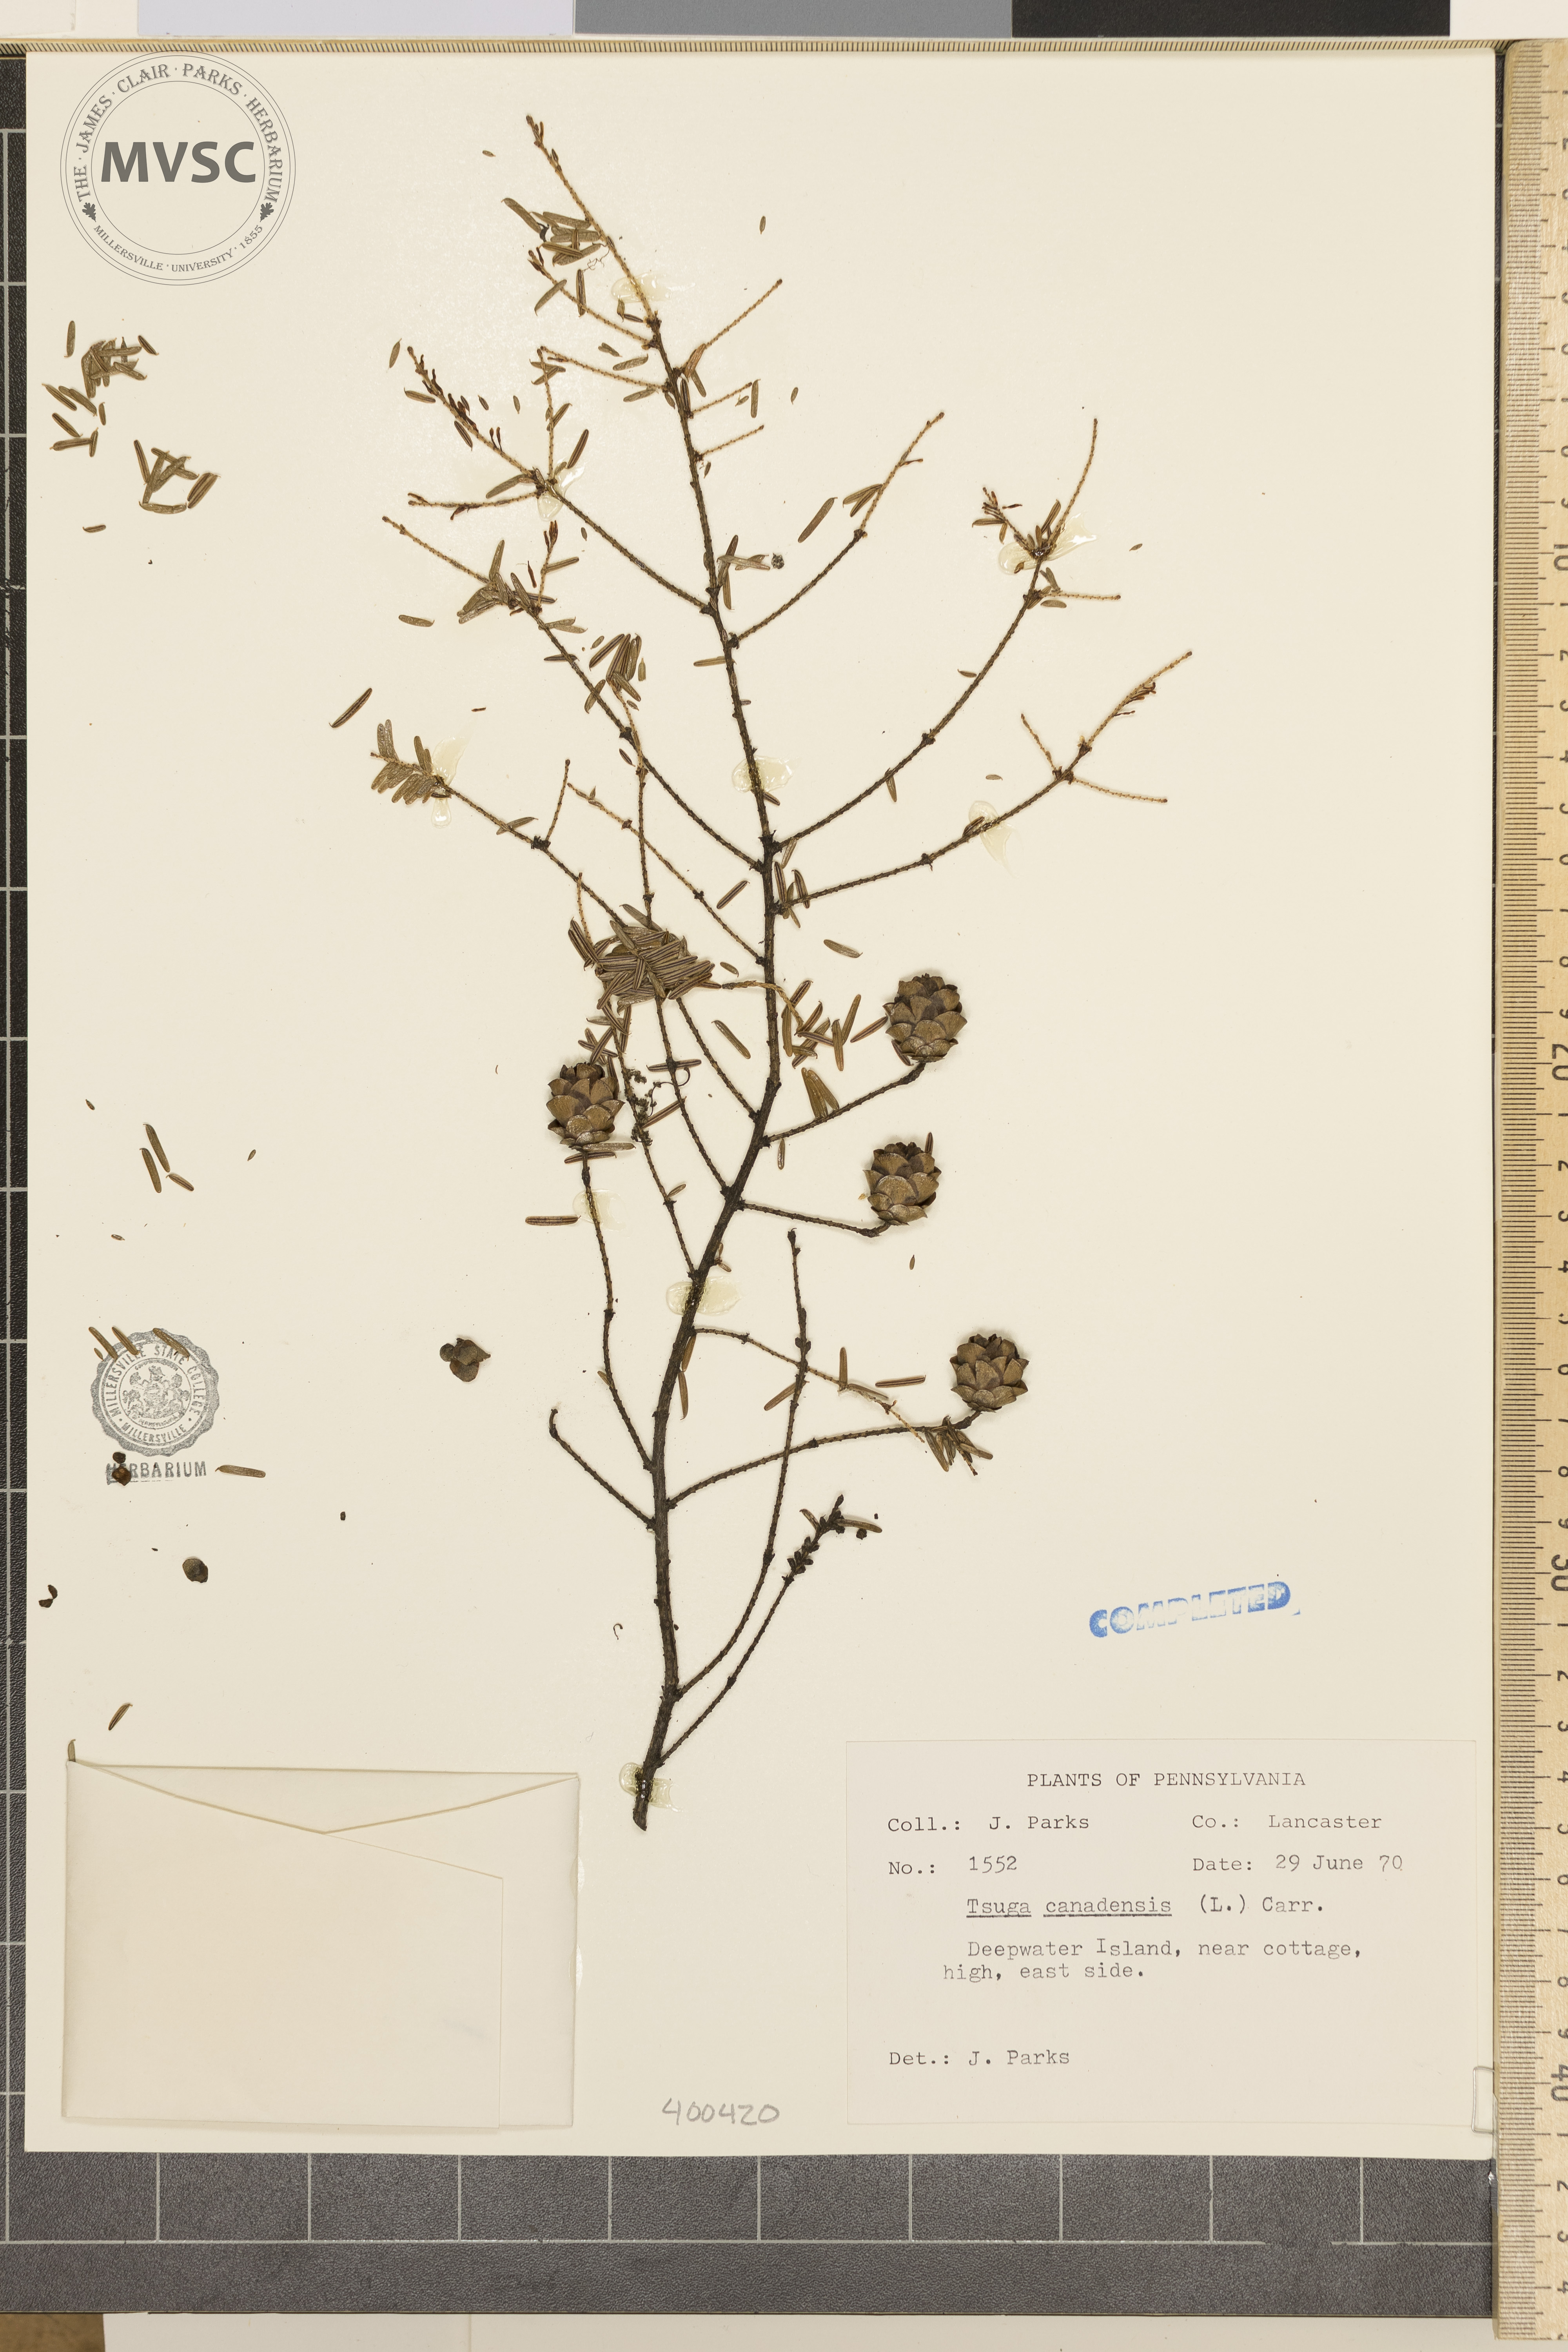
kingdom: Plantae
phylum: Tracheophyta
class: Pinopsida
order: Pinales
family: Pinaceae
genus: Tsuga
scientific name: Tsuga canadensis
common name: Eastern hemlock
